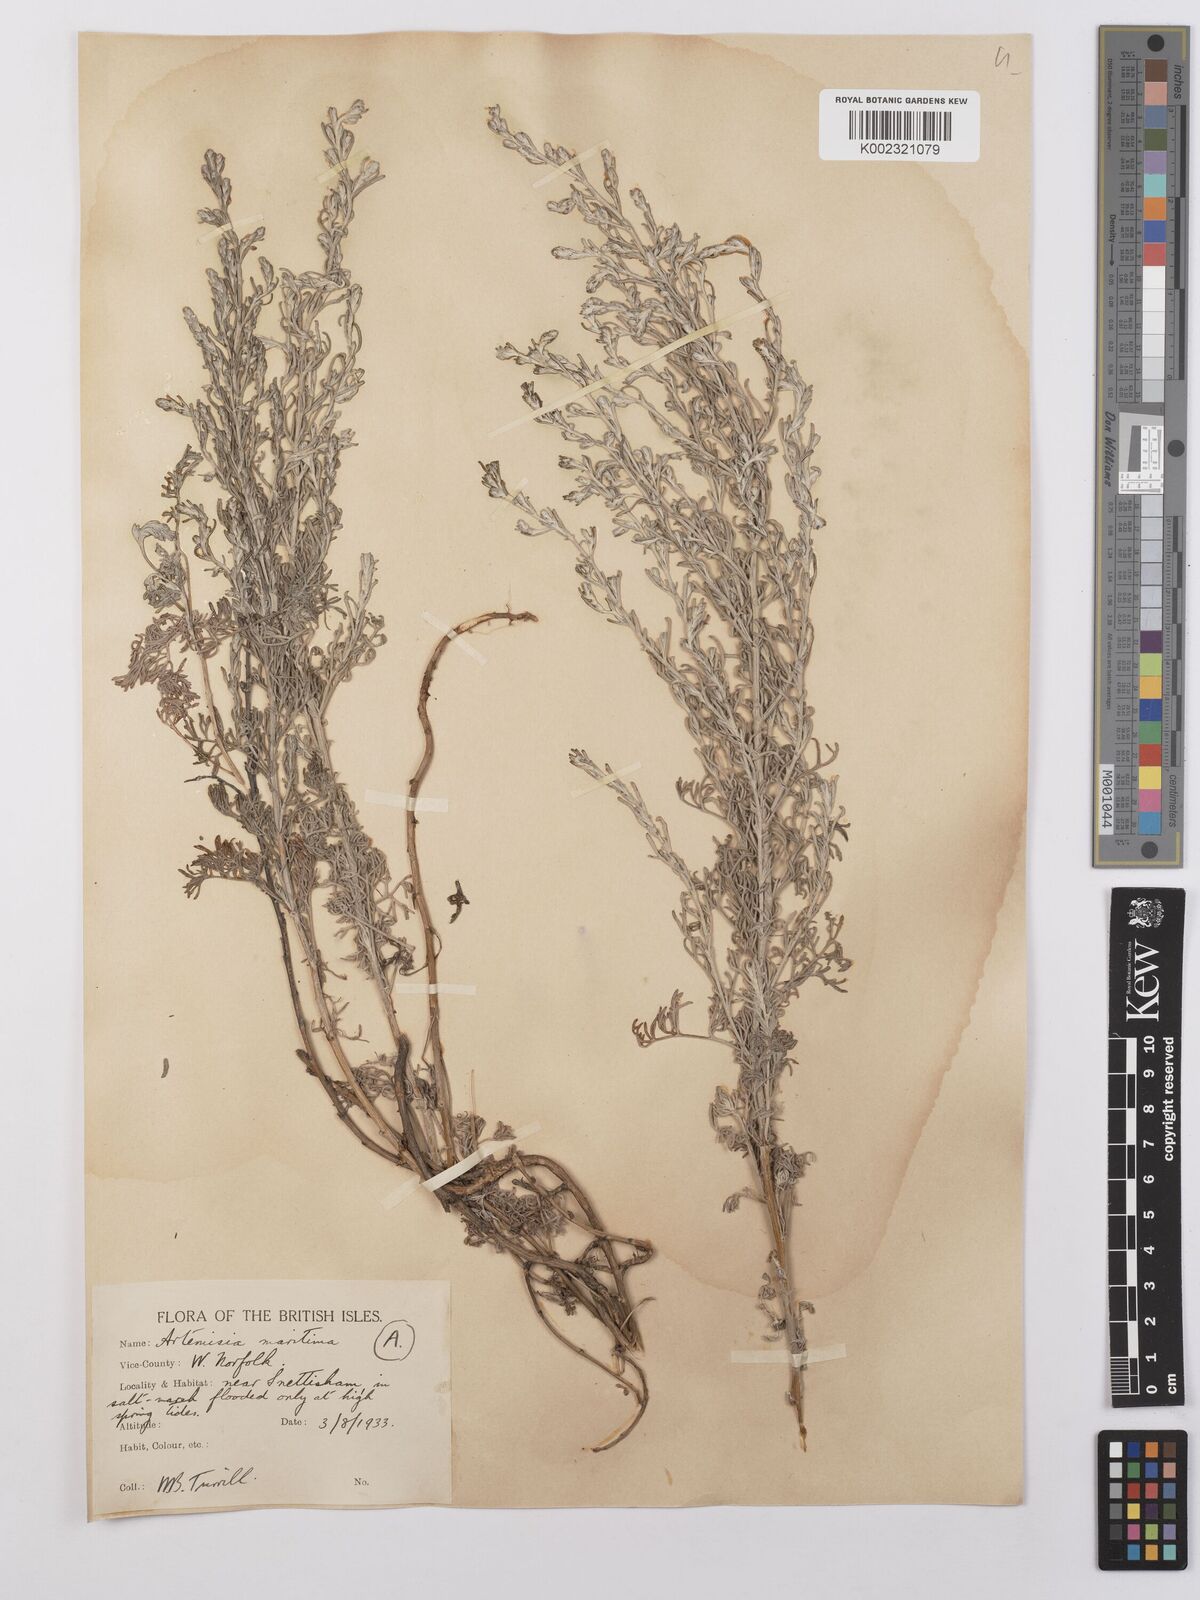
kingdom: Plantae
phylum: Tracheophyta
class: Magnoliopsida
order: Asterales
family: Asteraceae
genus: Artemisia
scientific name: Artemisia maritima
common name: Wormseed
